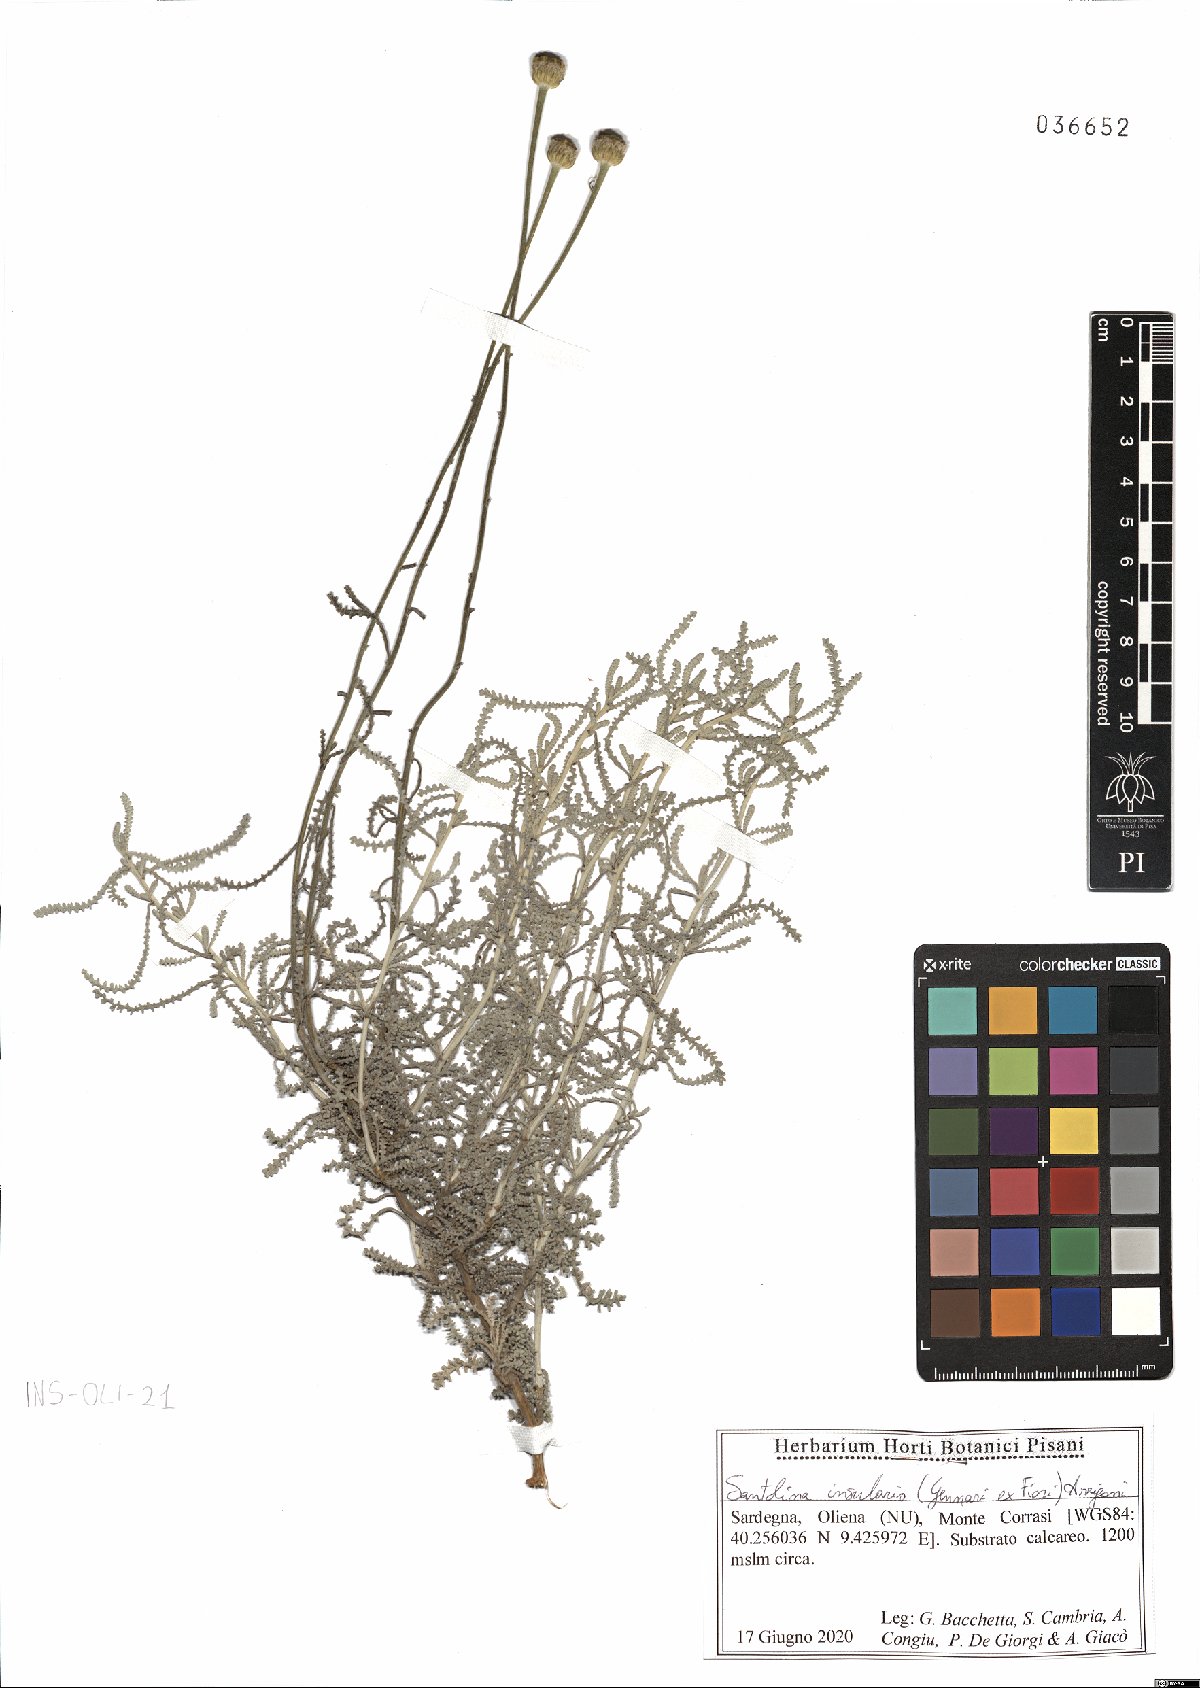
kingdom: Plantae
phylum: Tracheophyta
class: Magnoliopsida
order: Asterales
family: Asteraceae
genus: Santolina
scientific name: Santolina insularis
